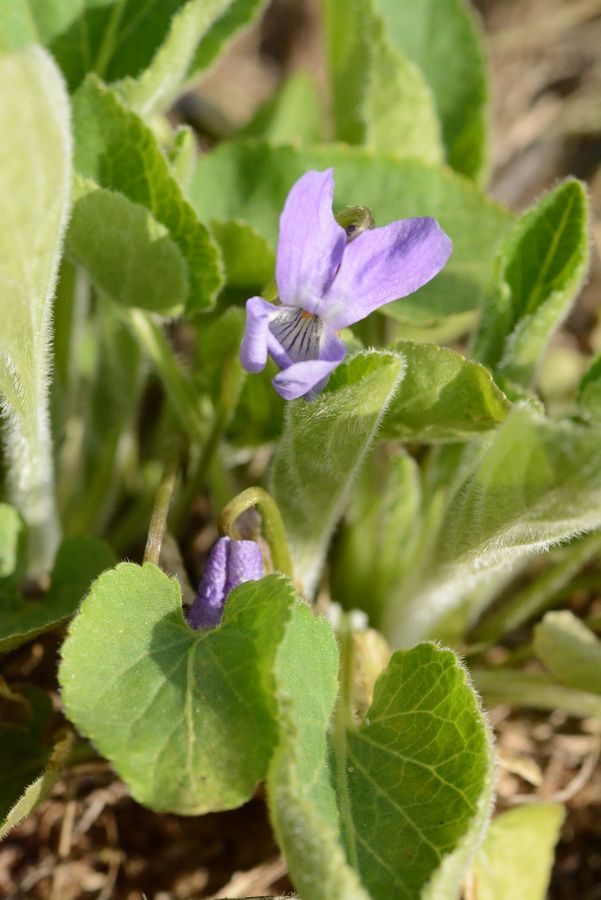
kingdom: Plantae
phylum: Tracheophyta
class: Magnoliopsida
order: Malpighiales
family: Violaceae
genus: Viola
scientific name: Viola rupestris
